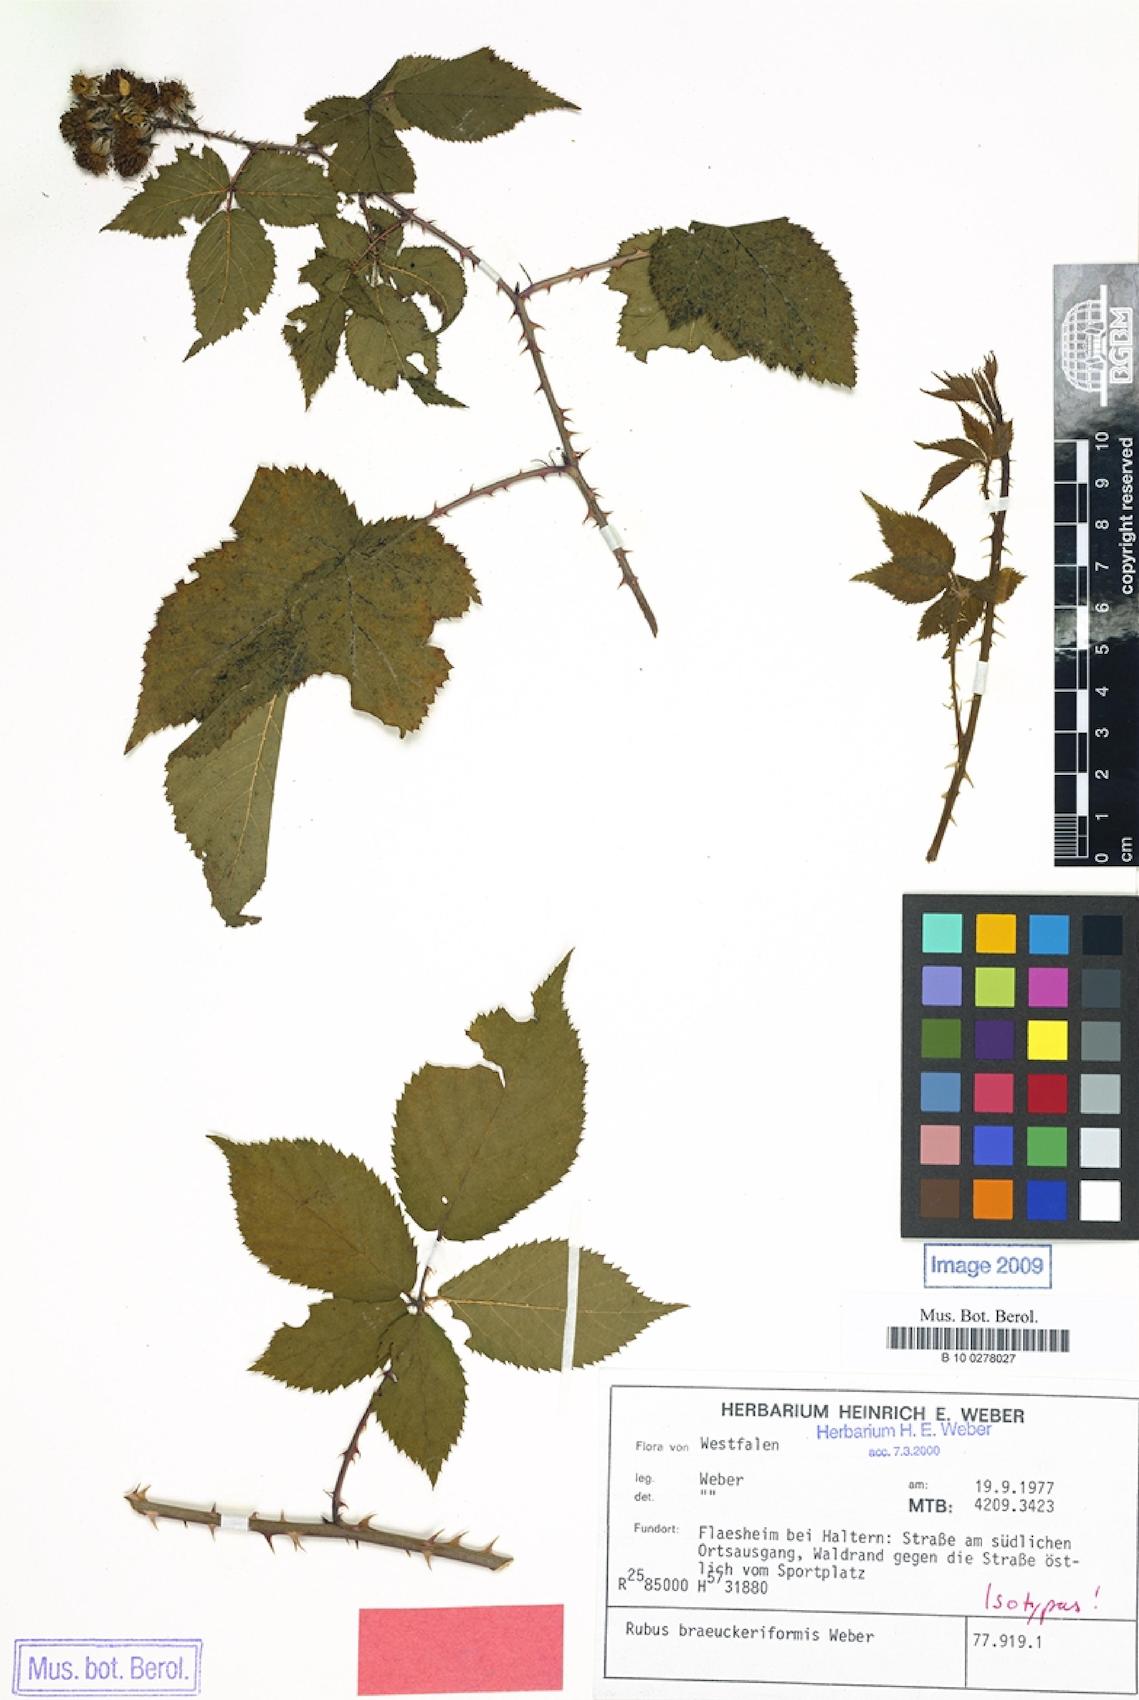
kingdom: Plantae
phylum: Tracheophyta
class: Magnoliopsida
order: Rosales
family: Rosaceae
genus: Rubus
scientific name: Rubus braeuckeriformis
